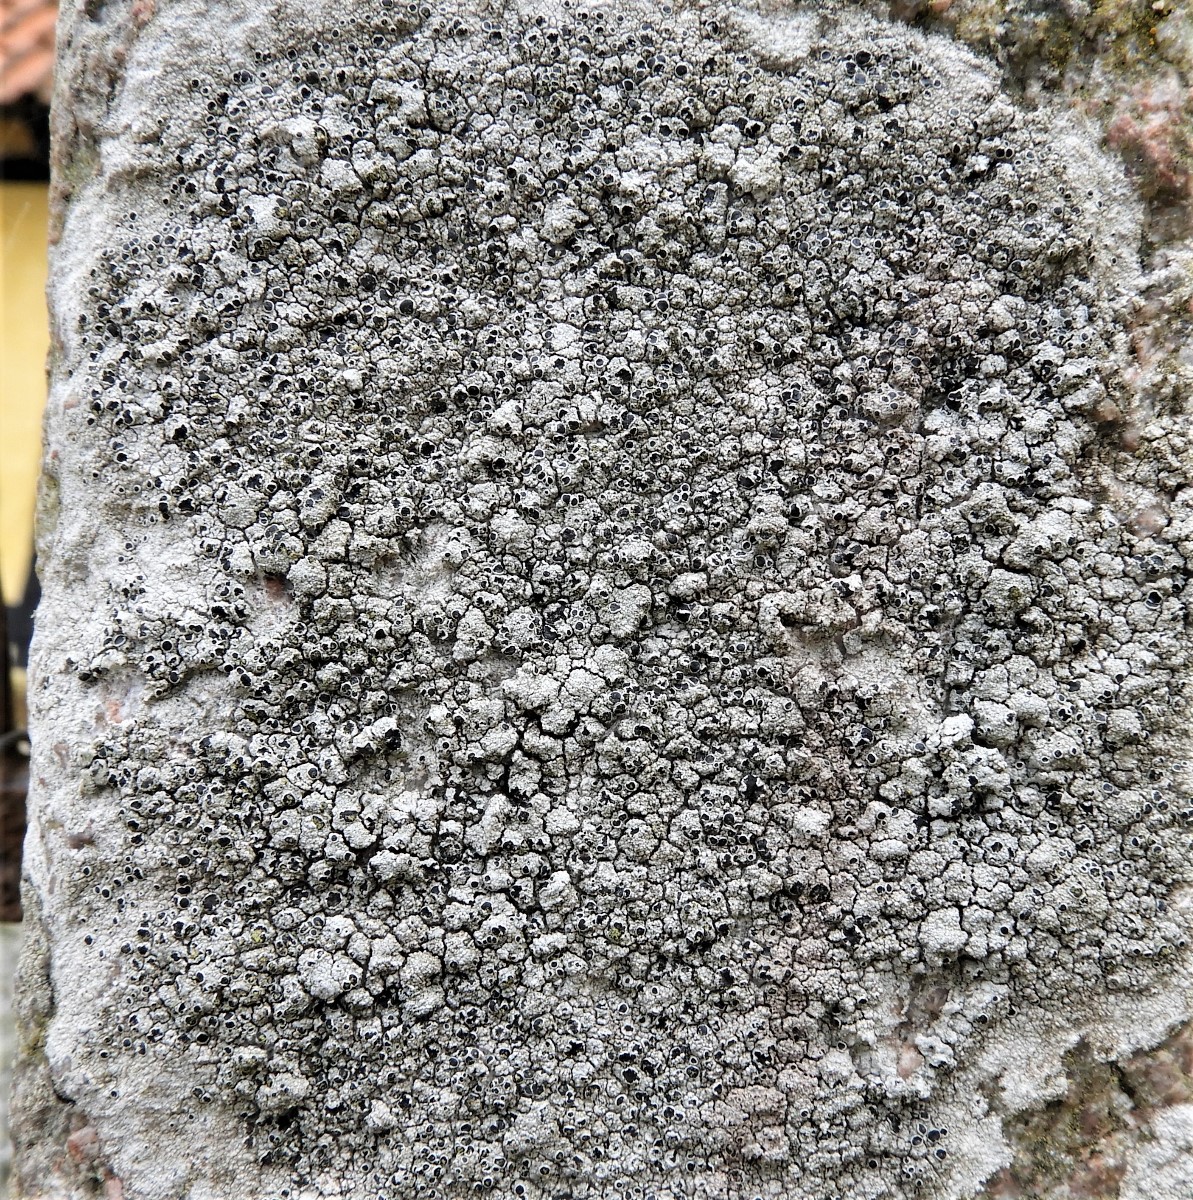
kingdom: Fungi
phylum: Ascomycota
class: Lecanoromycetes
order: Lecanorales
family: Tephromelataceae
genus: Tephromela
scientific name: Tephromela atra
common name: sortfrugtet kantskivelav
